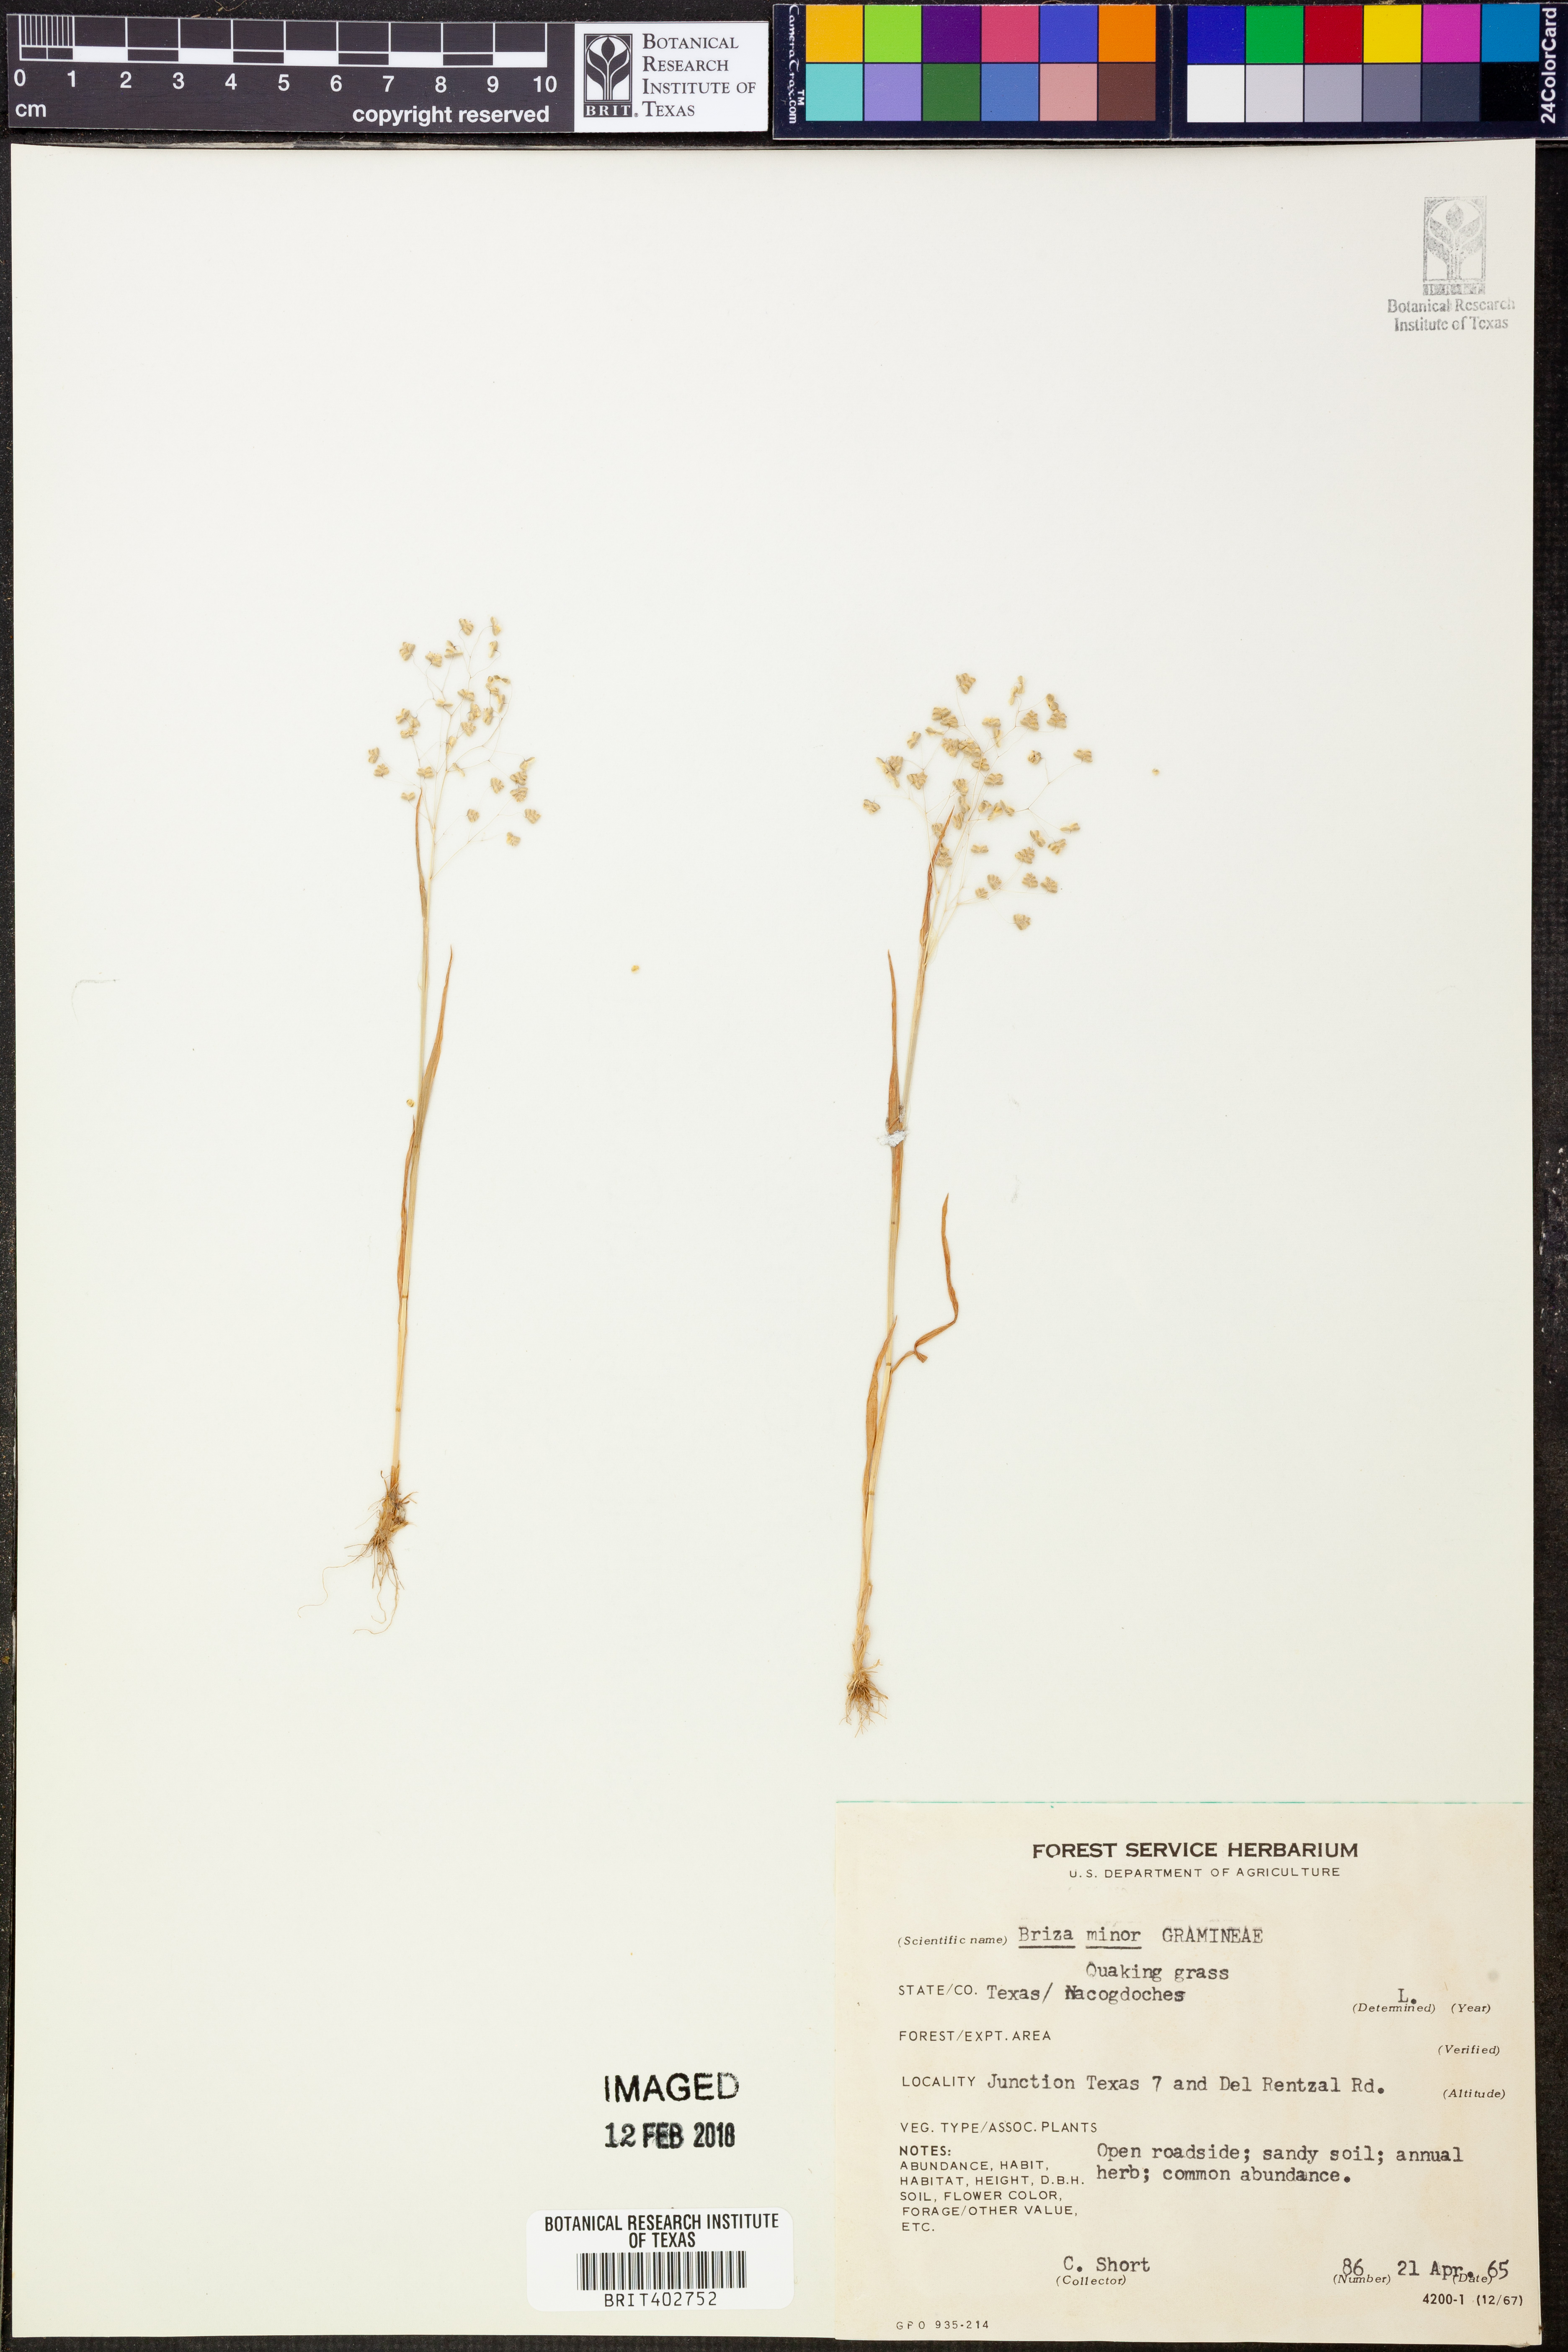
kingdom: Plantae
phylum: Tracheophyta
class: Liliopsida
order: Poales
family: Poaceae
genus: Briza
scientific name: Briza minor
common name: Lesser quaking-grass
